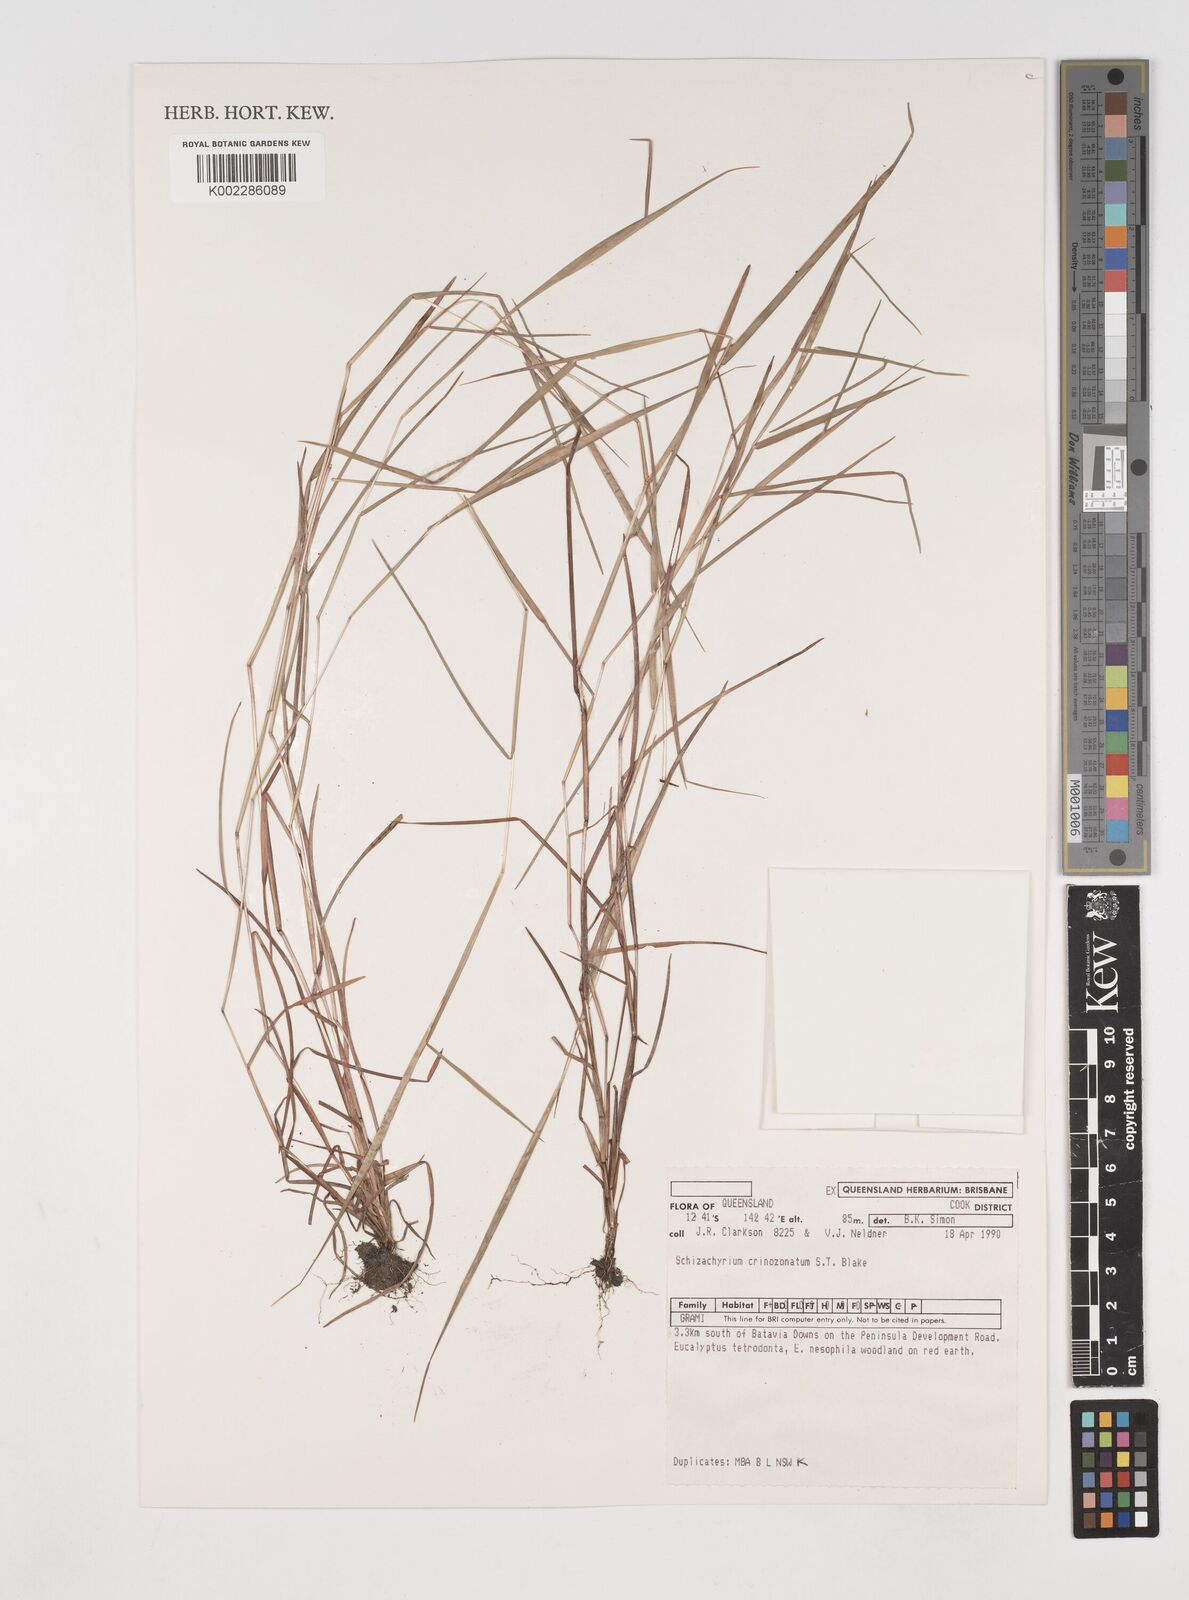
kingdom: Plantae
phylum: Tracheophyta
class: Liliopsida
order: Poales
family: Poaceae
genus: Schizachyrium
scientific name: Schizachyrium crinizonatum
